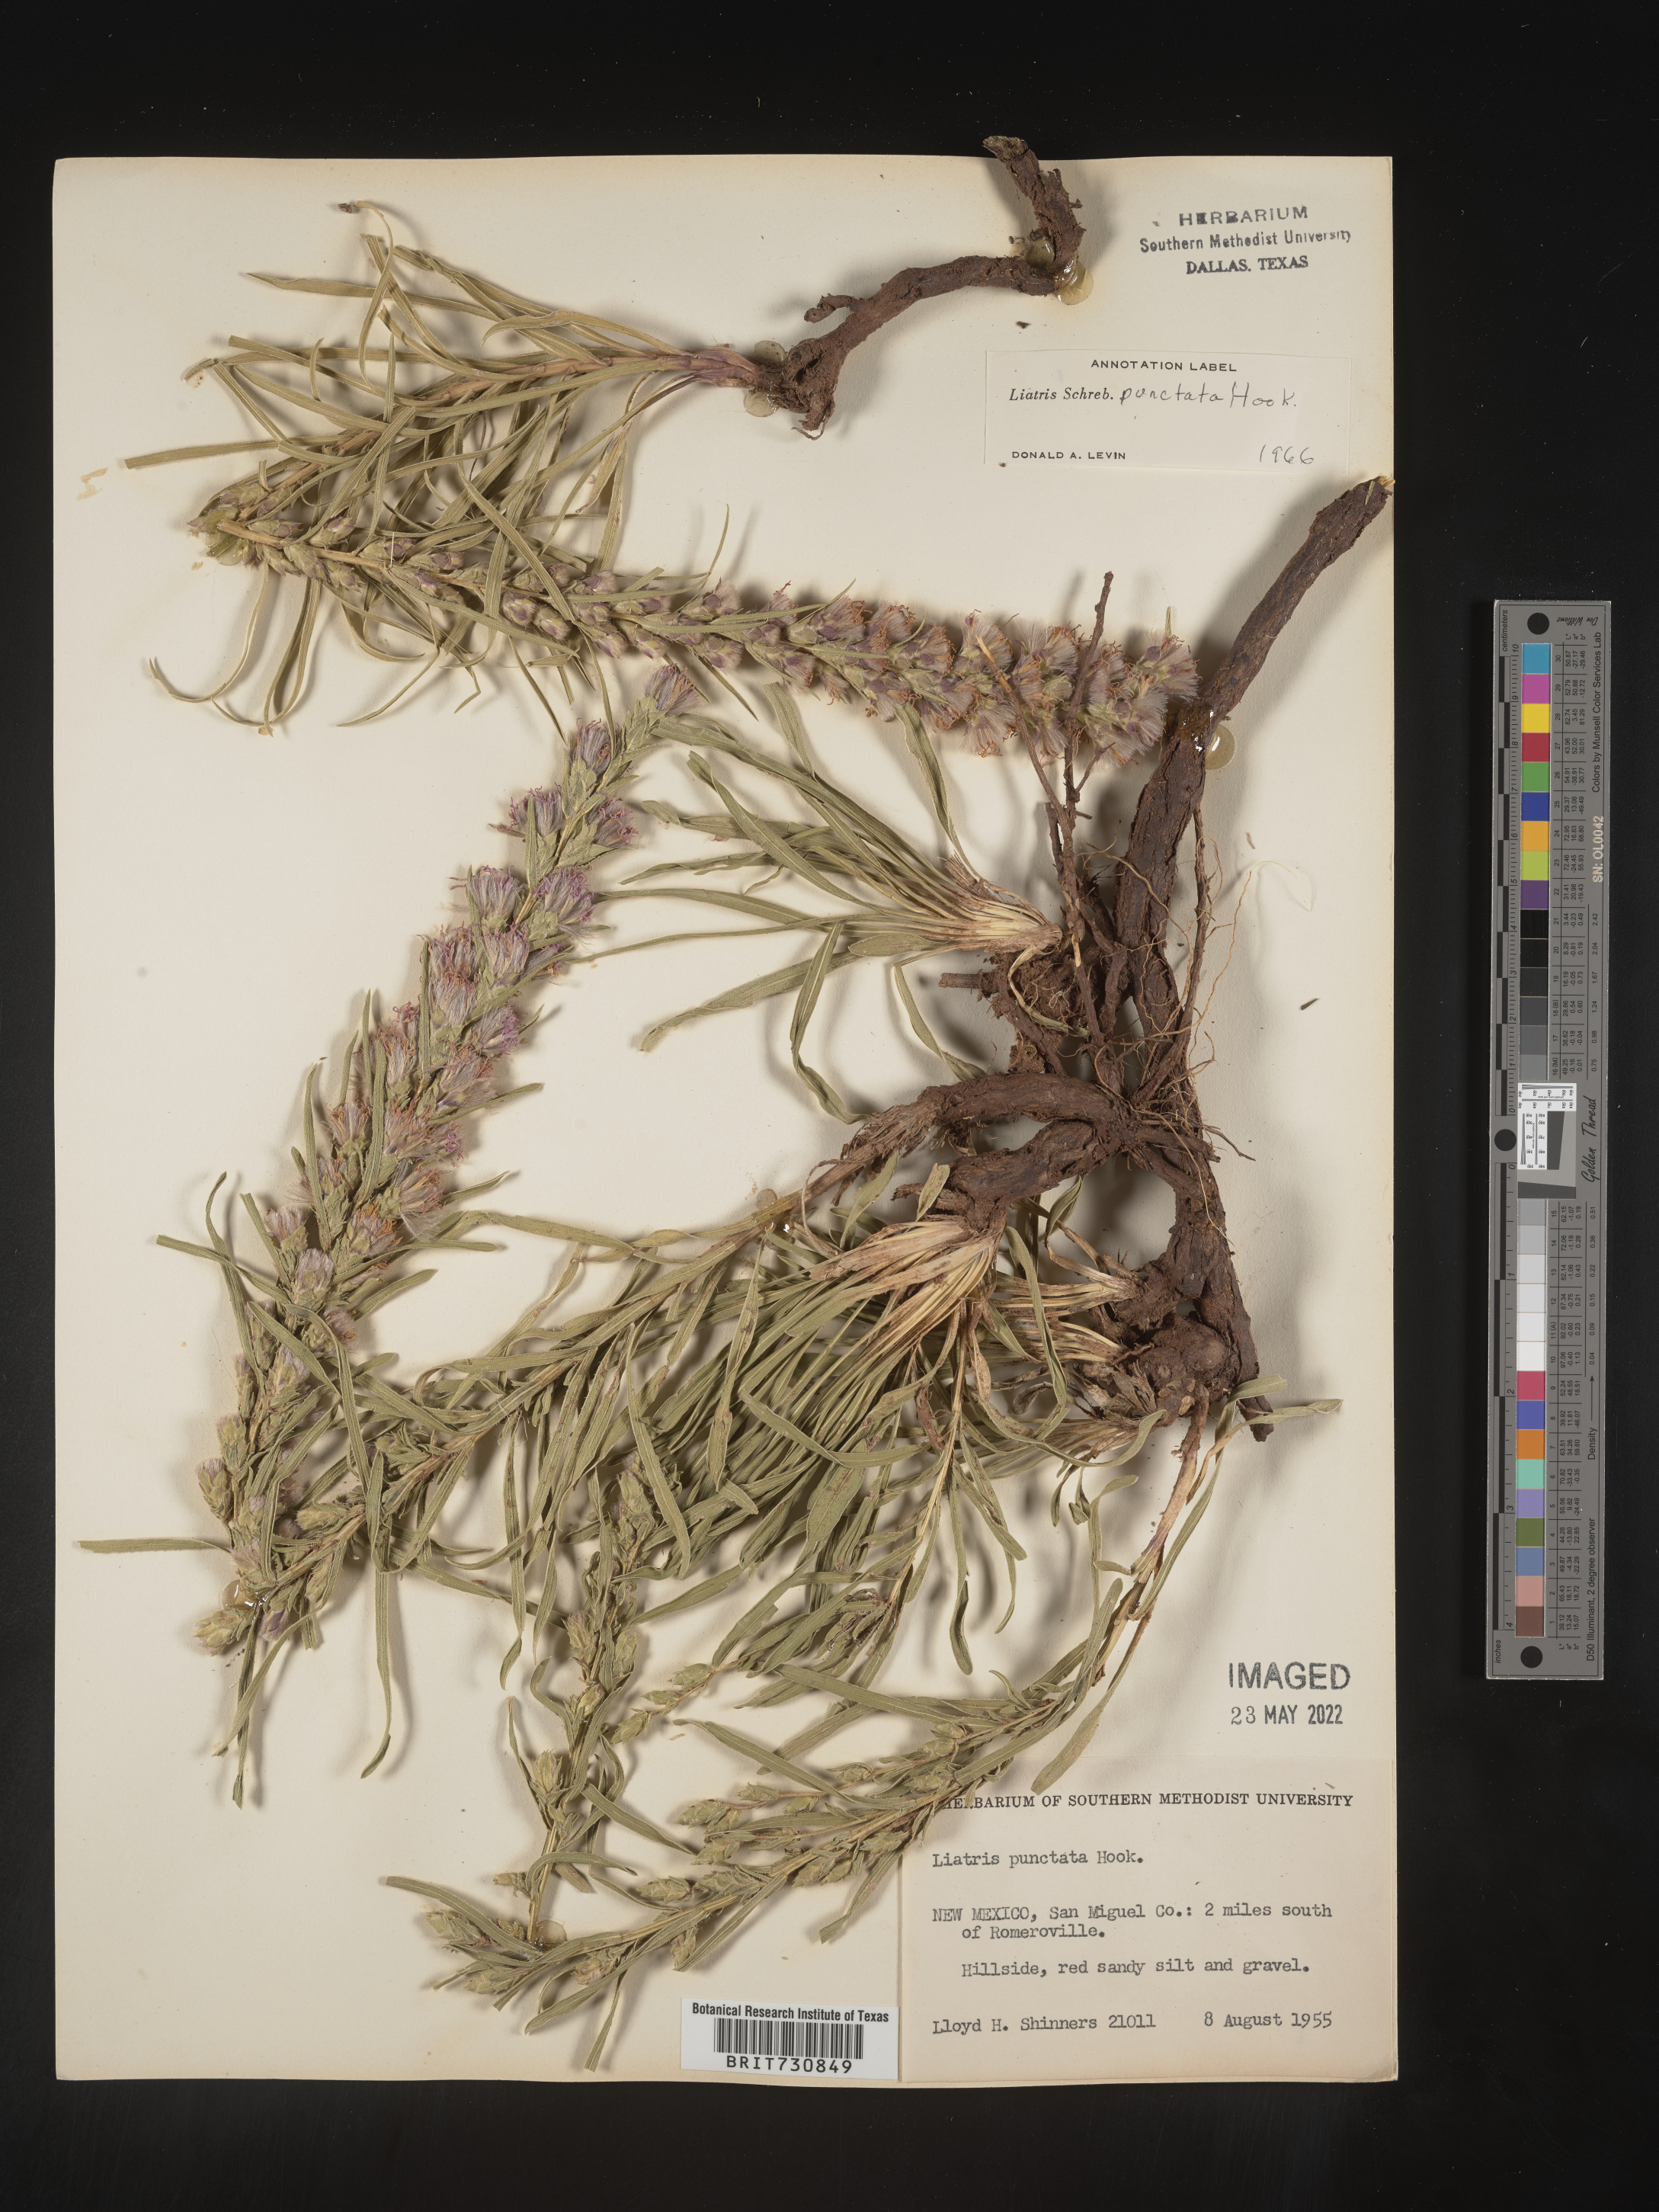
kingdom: Plantae
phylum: Tracheophyta
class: Magnoliopsida
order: Asterales
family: Asteraceae
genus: Liatris
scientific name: Liatris punctata
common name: Dotted gayfeather
